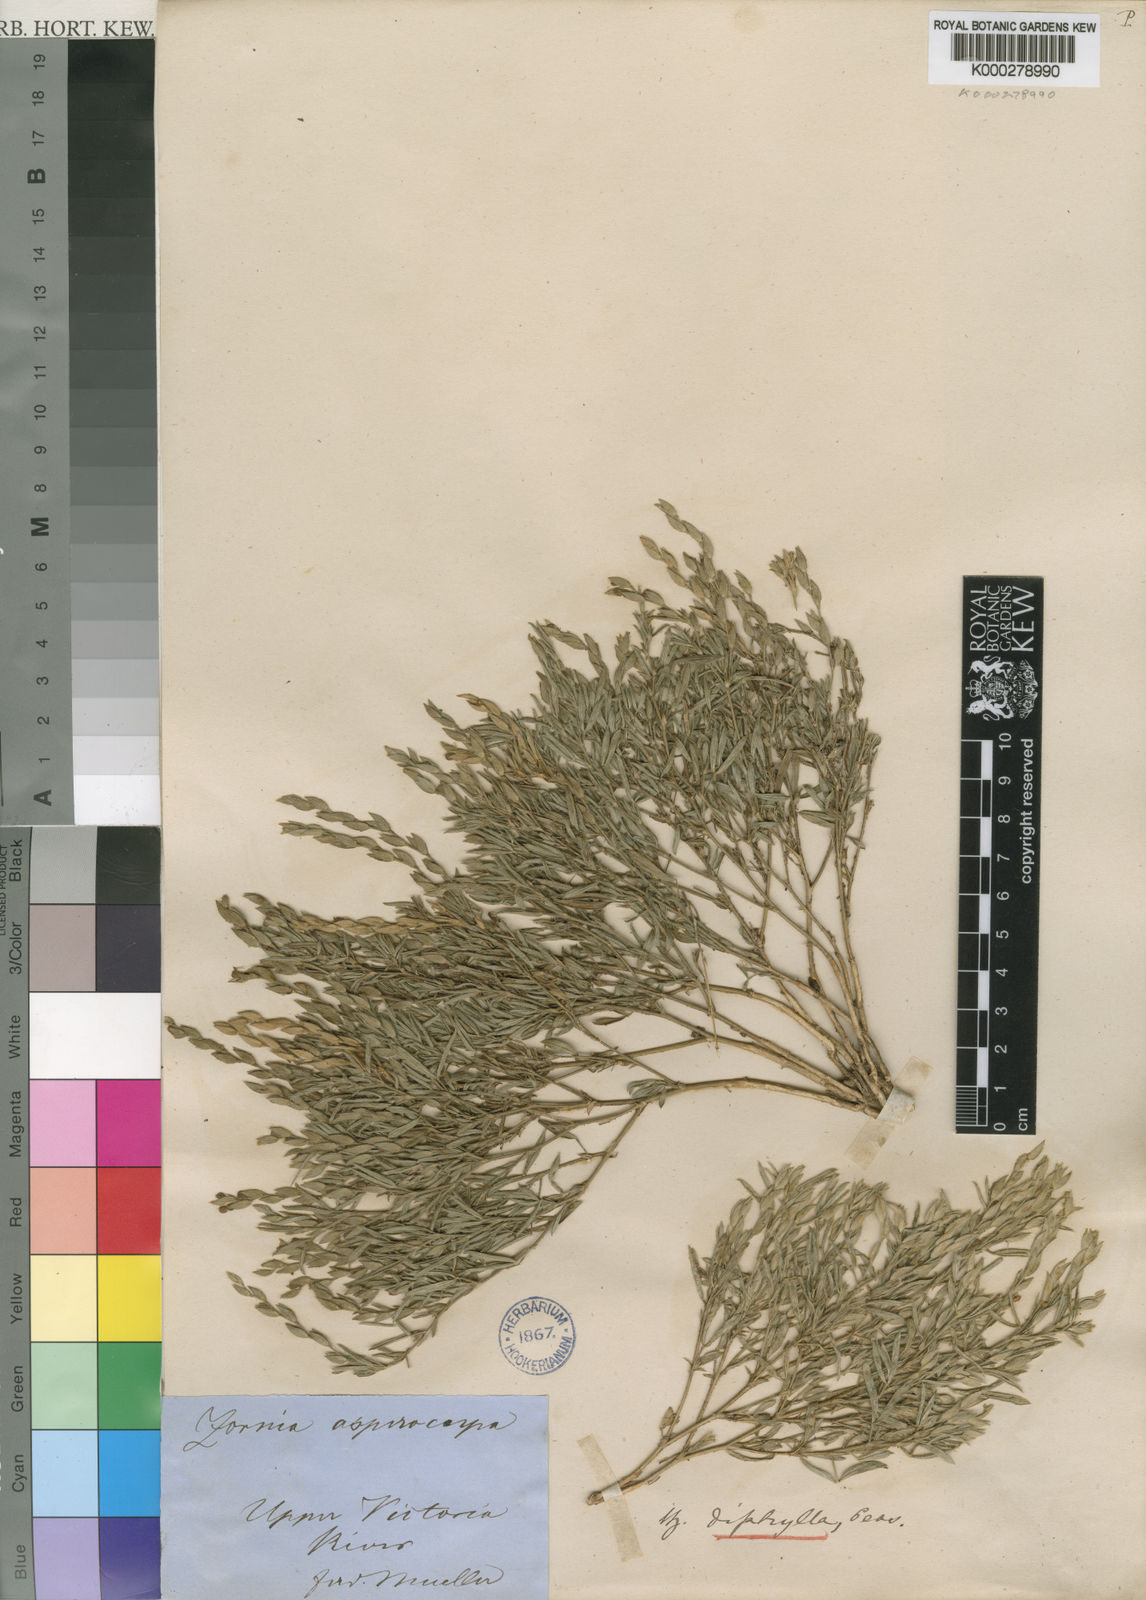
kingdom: Plantae
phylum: Tracheophyta
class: Magnoliopsida
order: Fabales
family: Fabaceae
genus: Zornia
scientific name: Zornia diphylla
